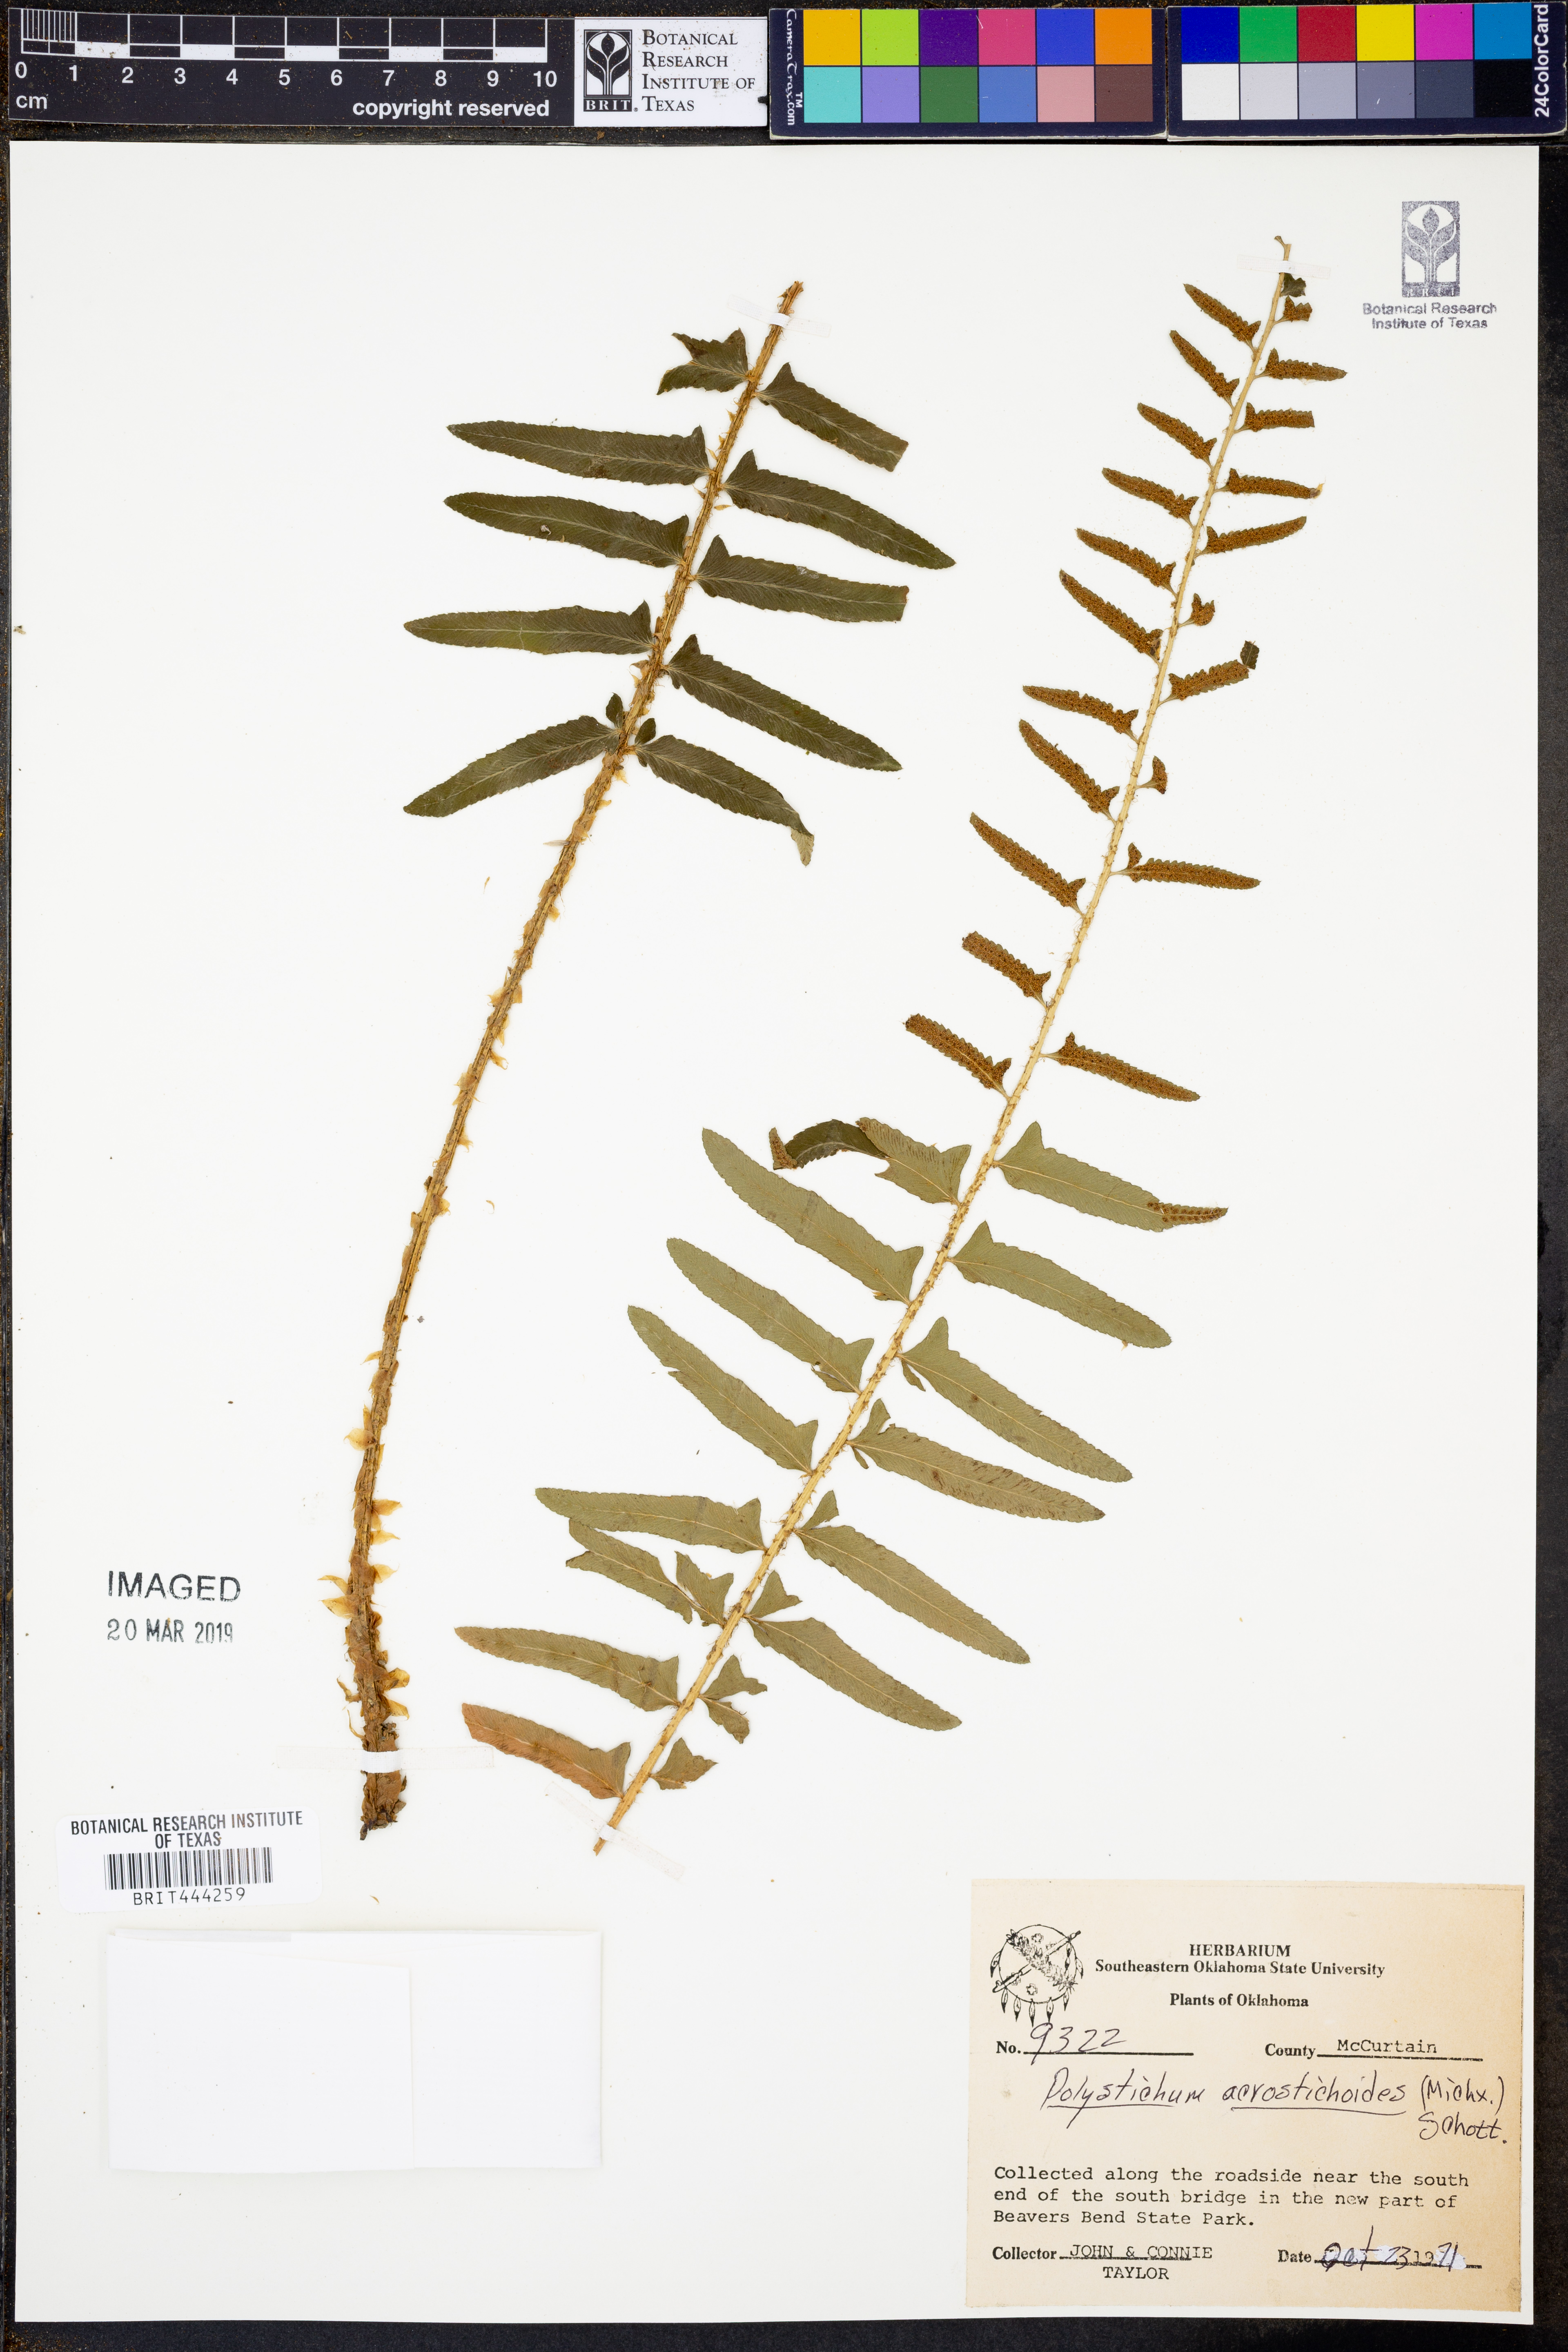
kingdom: Plantae
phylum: Tracheophyta
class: Polypodiopsida
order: Polypodiales
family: Dryopteridaceae
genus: Polystichum
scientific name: Polystichum acrostichoides
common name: Christmas fern
